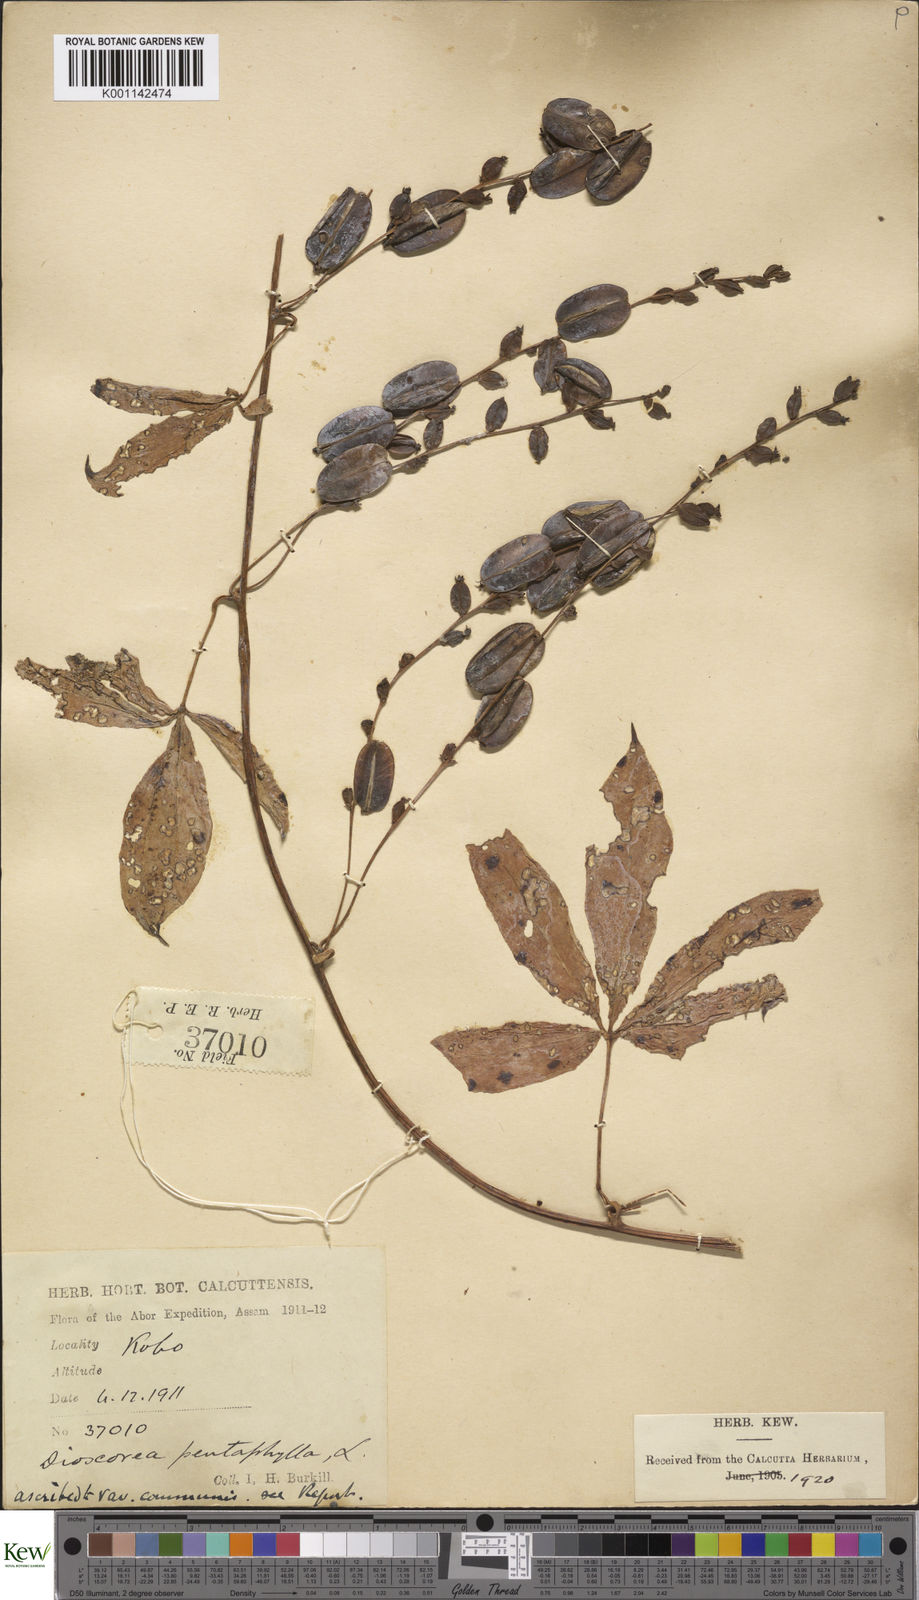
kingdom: Plantae
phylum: Tracheophyta
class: Liliopsida
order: Dioscoreales
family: Dioscoreaceae
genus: Dioscorea
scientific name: Dioscorea pentaphylla
